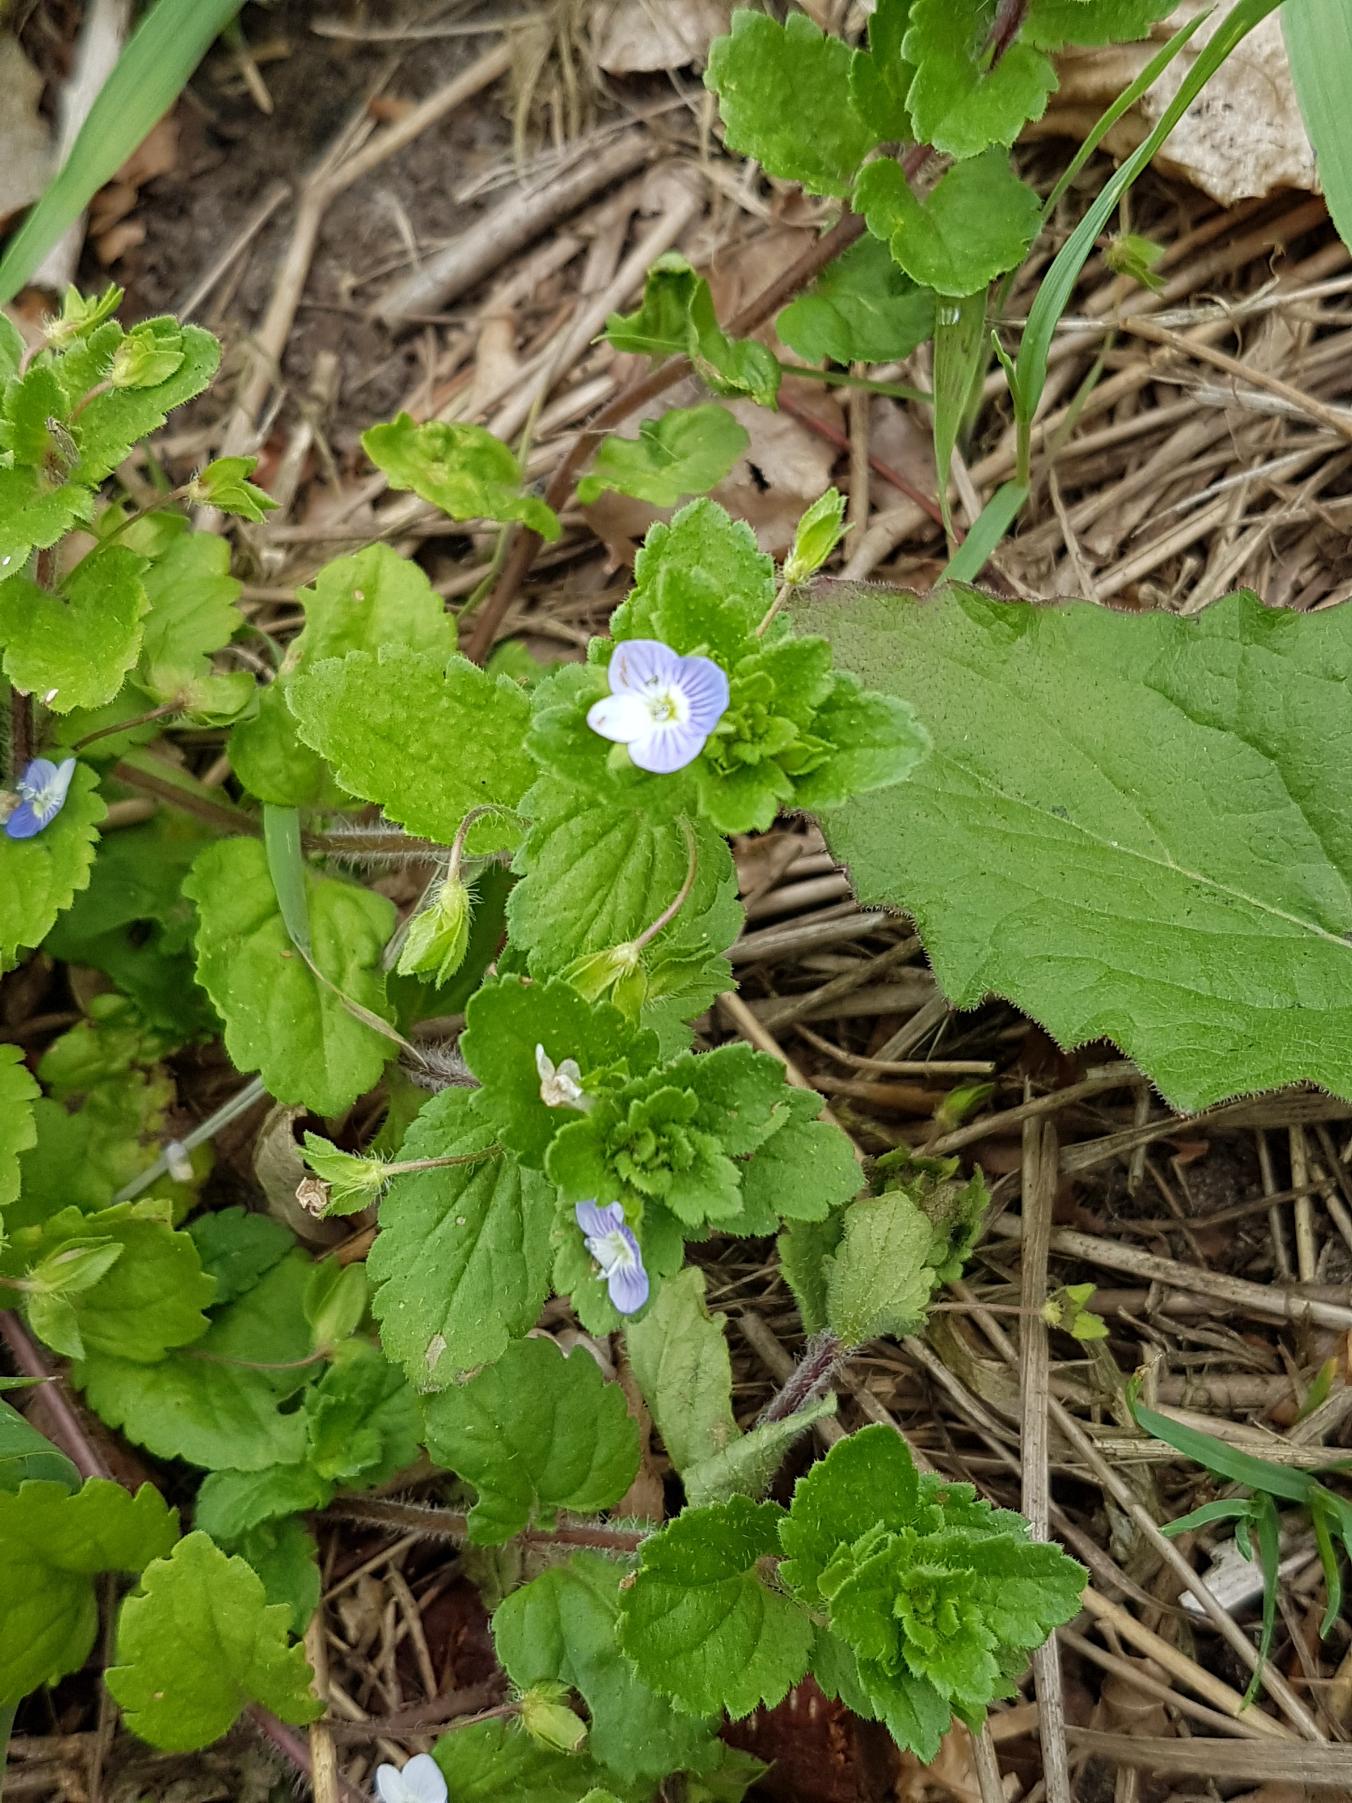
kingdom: Plantae
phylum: Tracheophyta
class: Magnoliopsida
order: Lamiales
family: Plantaginaceae
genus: Veronica
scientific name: Veronica persica
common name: Storkronet ærenpris
